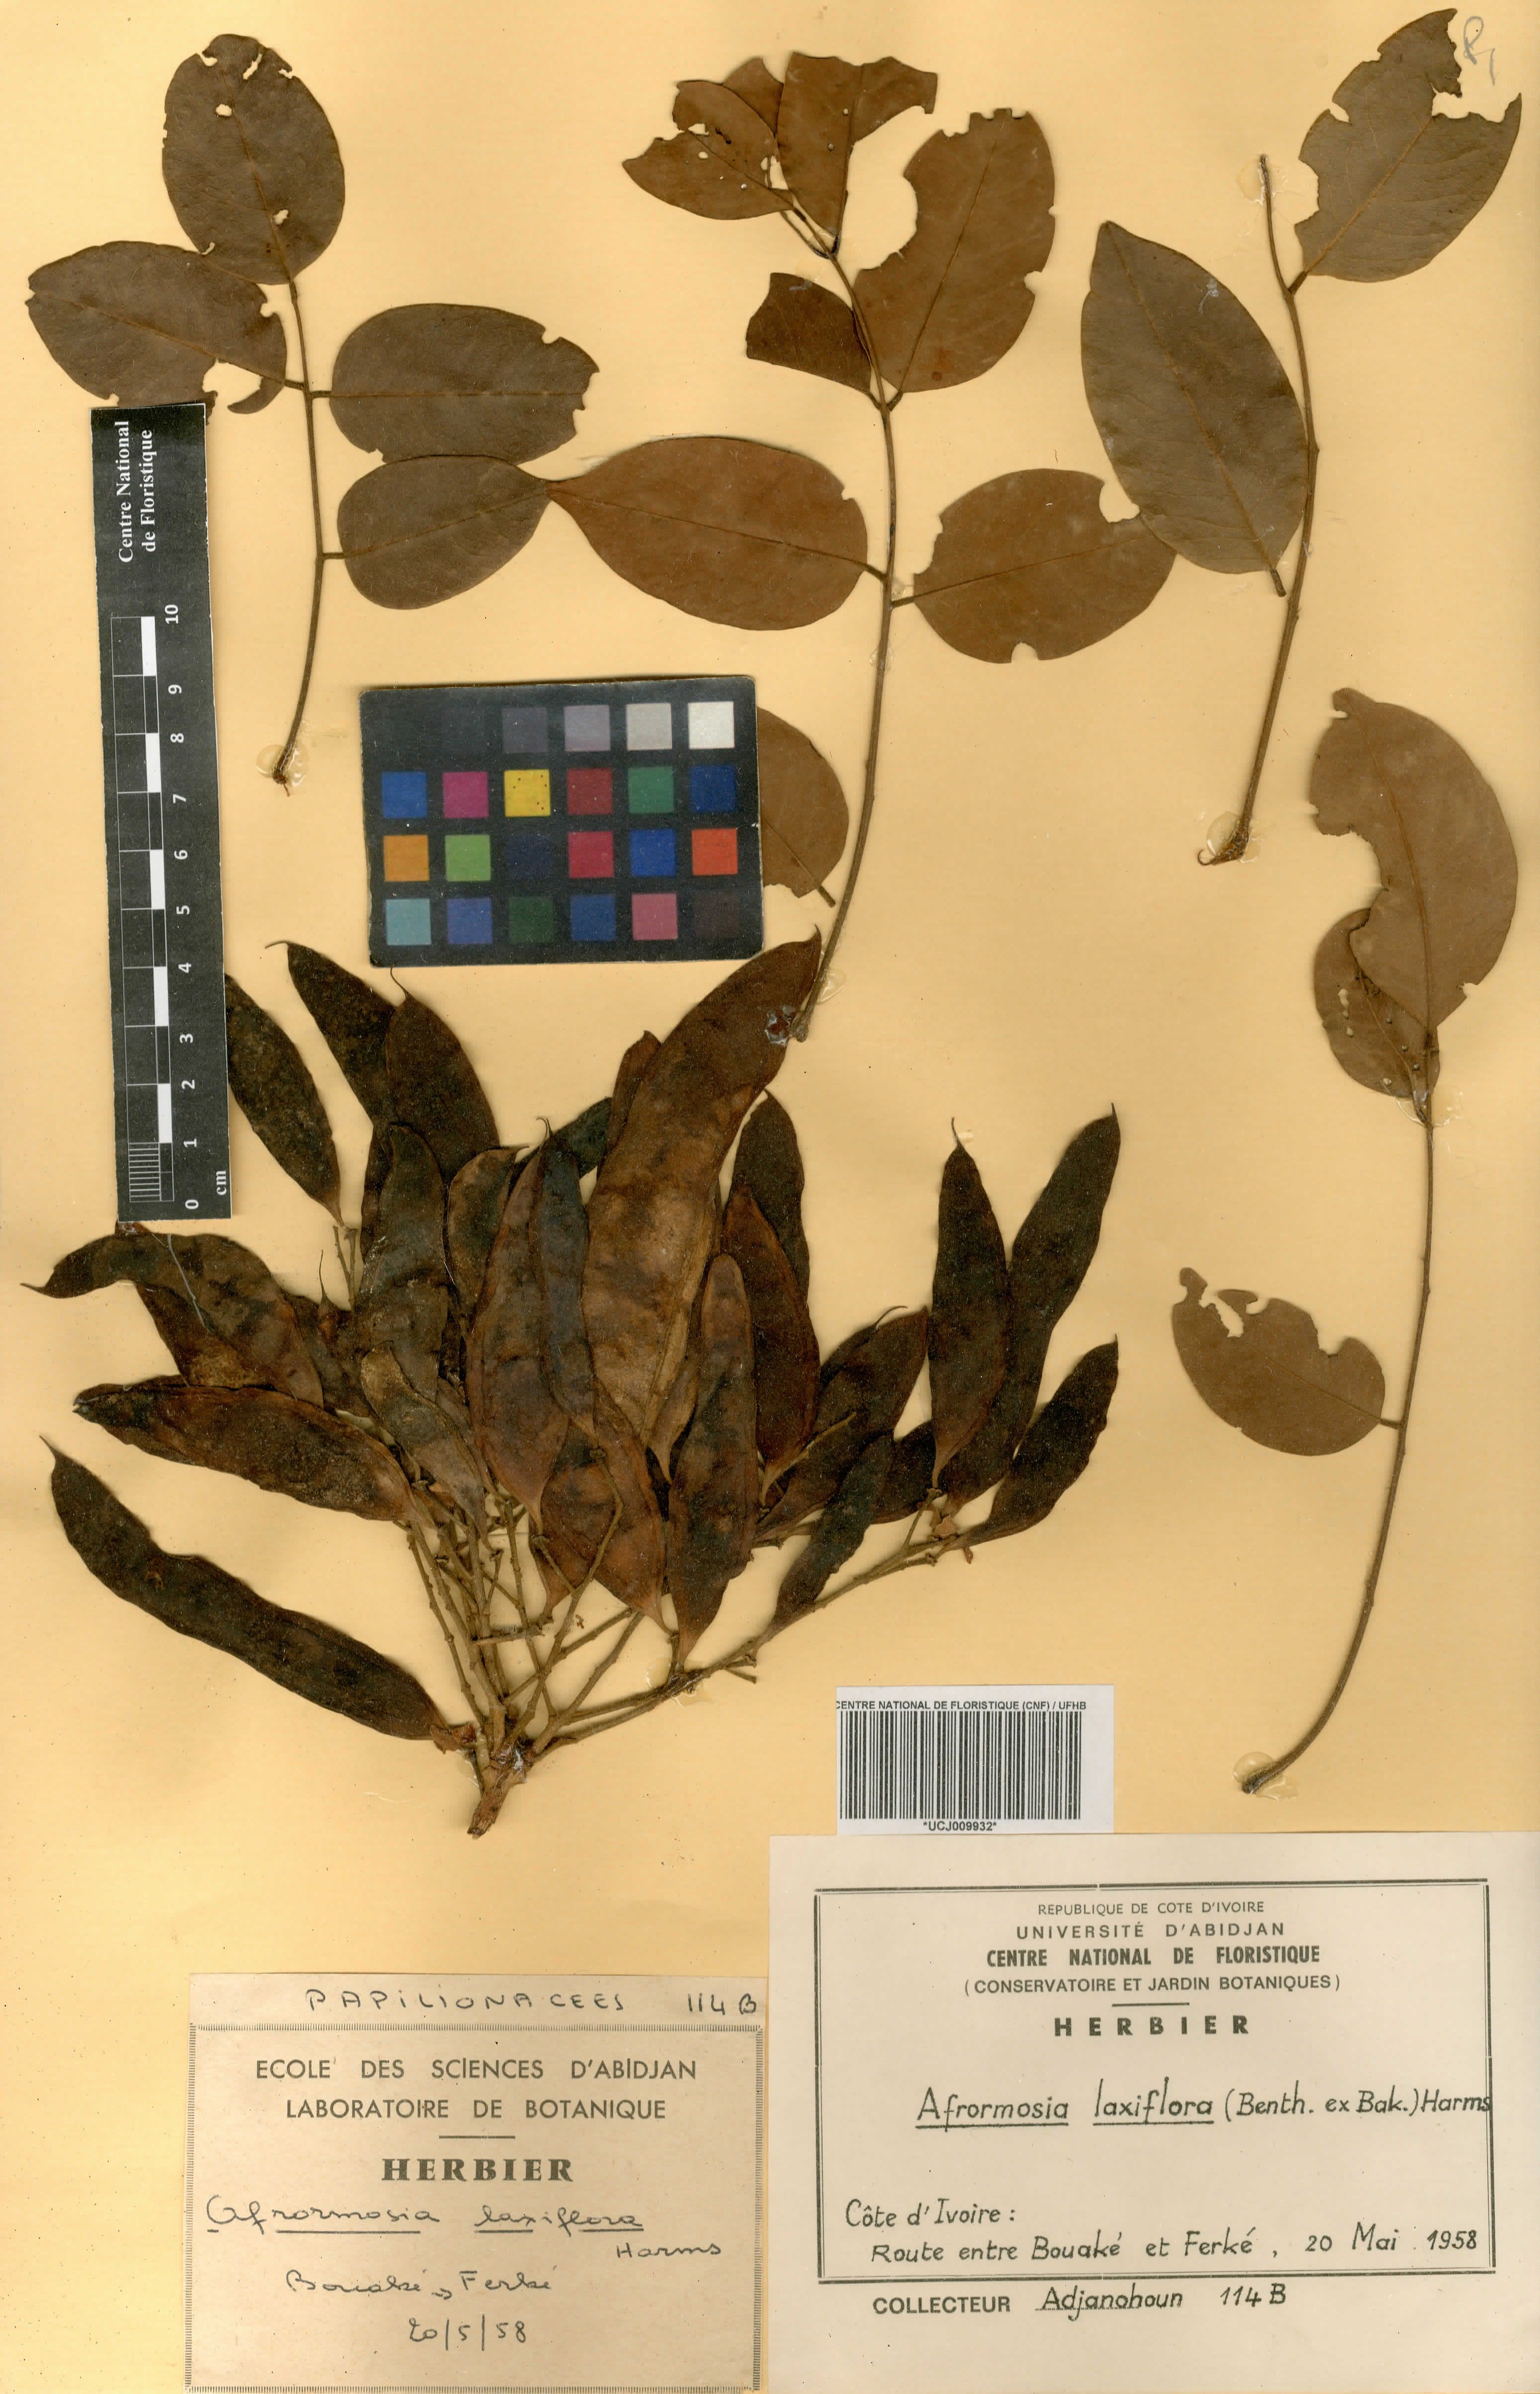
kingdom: Plantae
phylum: Tracheophyta
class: Magnoliopsida
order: Fabales
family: Fabaceae
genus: Pericopsis
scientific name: Pericopsis laxiflora
